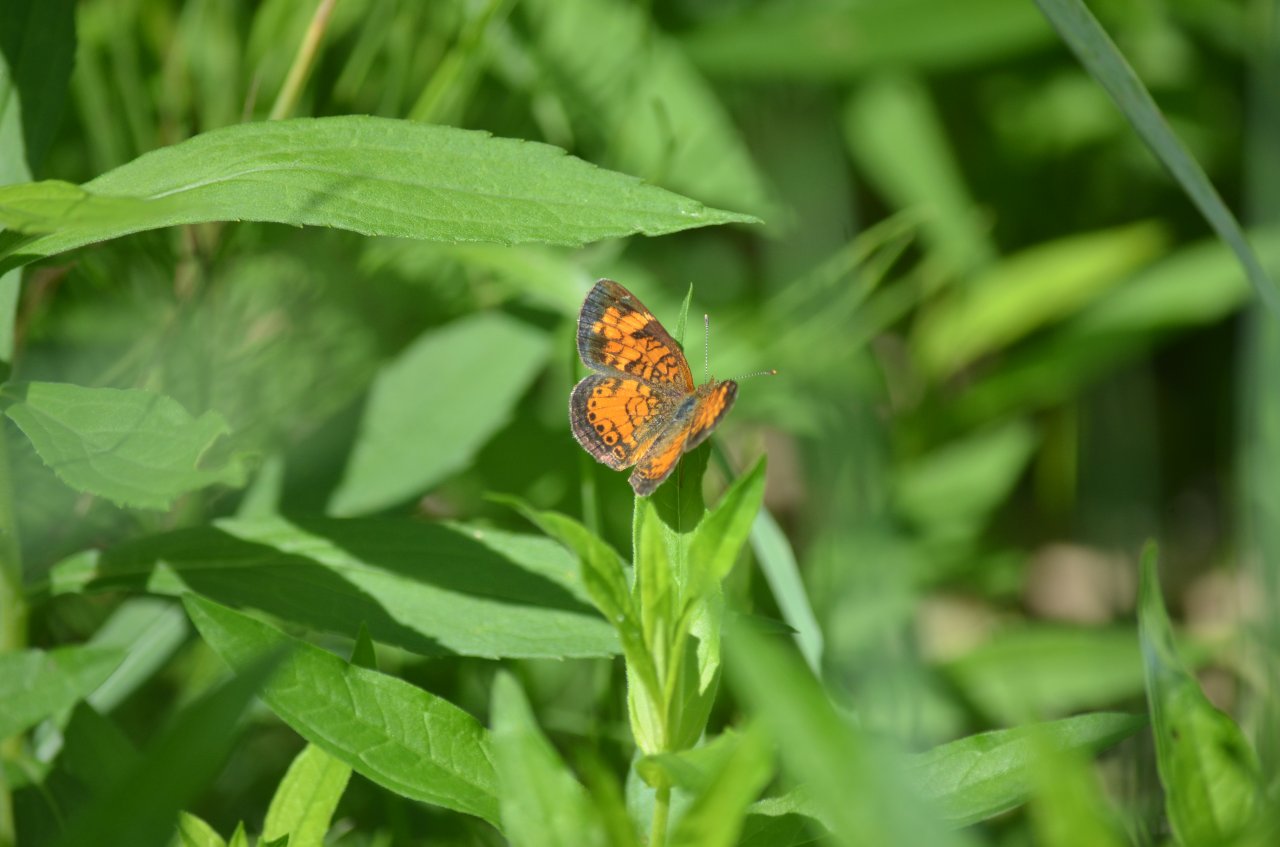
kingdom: Animalia
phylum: Arthropoda
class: Insecta
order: Lepidoptera
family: Nymphalidae
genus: Phyciodes
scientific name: Phyciodes tharos
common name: Northern Crescent
